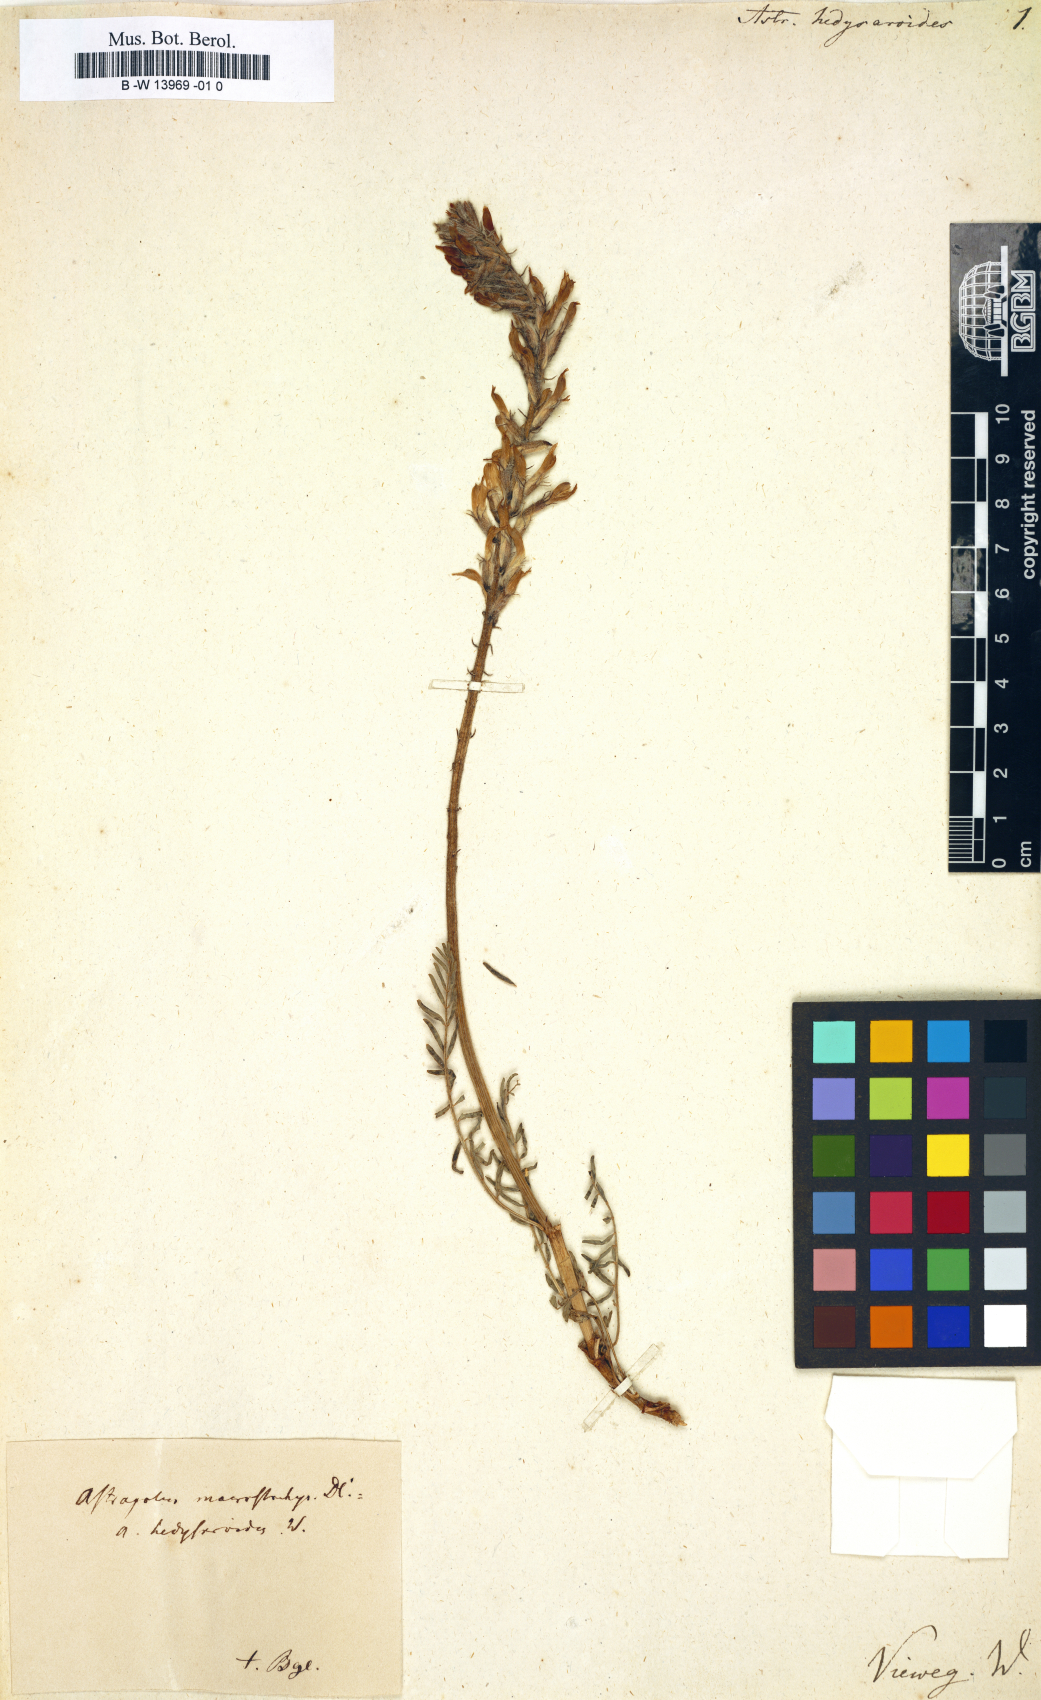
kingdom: Plantae
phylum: Tracheophyta
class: Magnoliopsida
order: Fabales
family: Fabaceae
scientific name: Fabaceae
